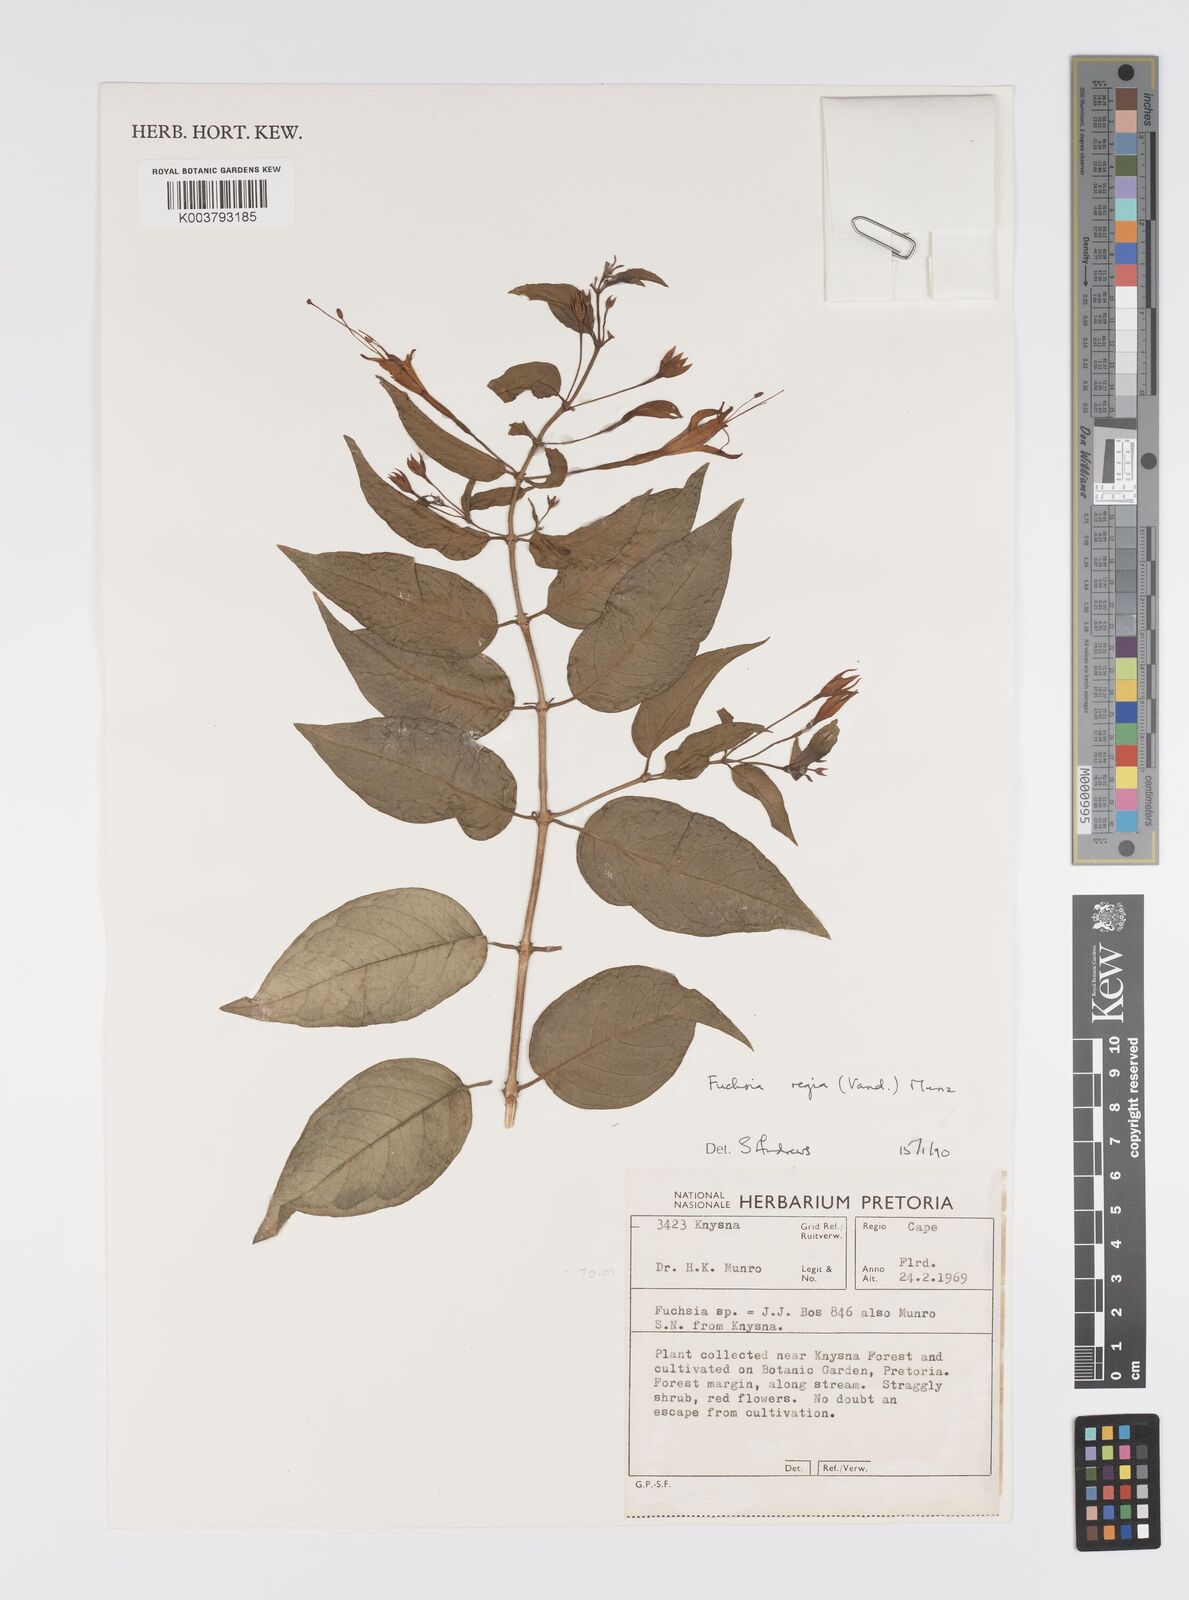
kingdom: Plantae
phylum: Tracheophyta
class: Magnoliopsida
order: Myrtales
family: Onagraceae
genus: Fuchsia
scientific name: Fuchsia regia
